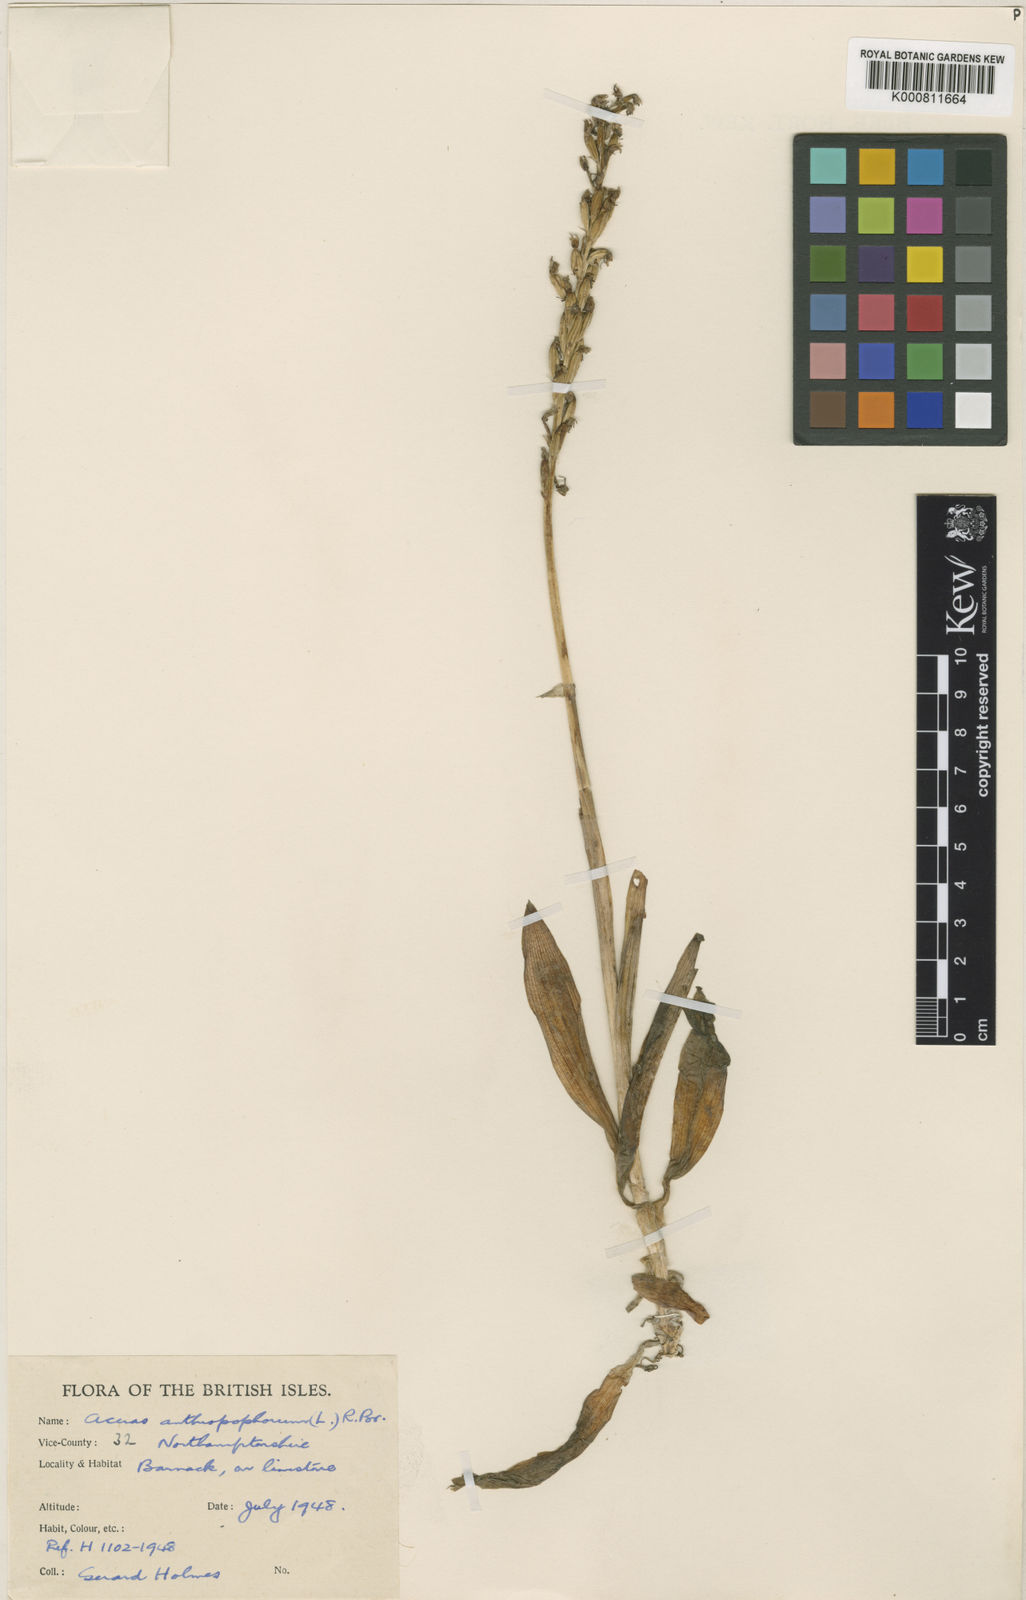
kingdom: Plantae
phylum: Tracheophyta
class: Liliopsida
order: Asparagales
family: Orchidaceae
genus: Orchis
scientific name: Orchis
